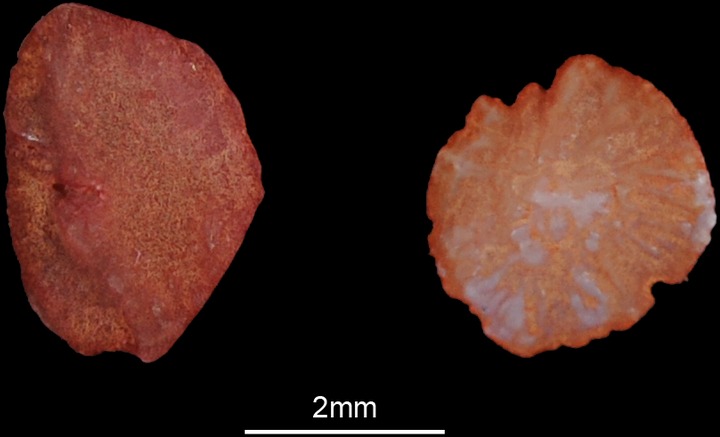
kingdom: Animalia
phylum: Chordata
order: Cypriniformes
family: Cyprinidae
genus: Leuciscus
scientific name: Leuciscus idus
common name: Ide
